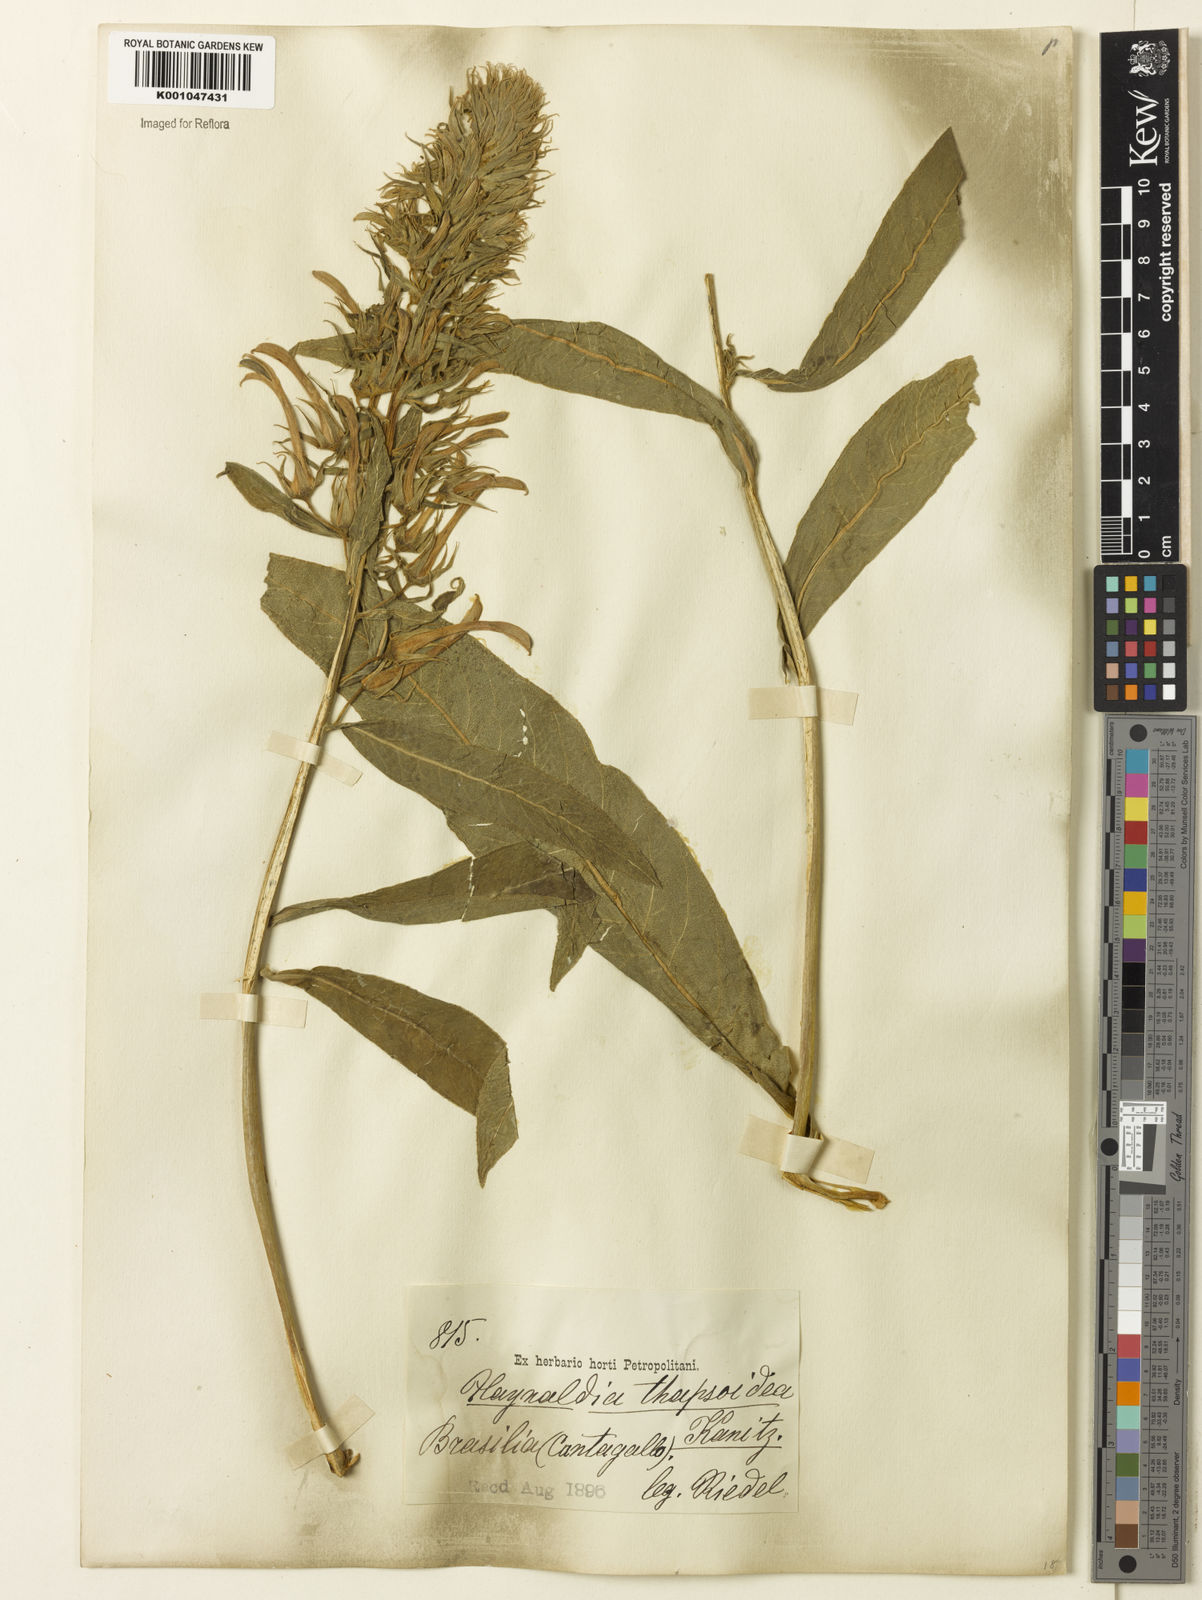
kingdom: Plantae
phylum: Tracheophyta
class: Magnoliopsida
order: Asterales
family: Campanulaceae
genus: Lobelia
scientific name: Lobelia
